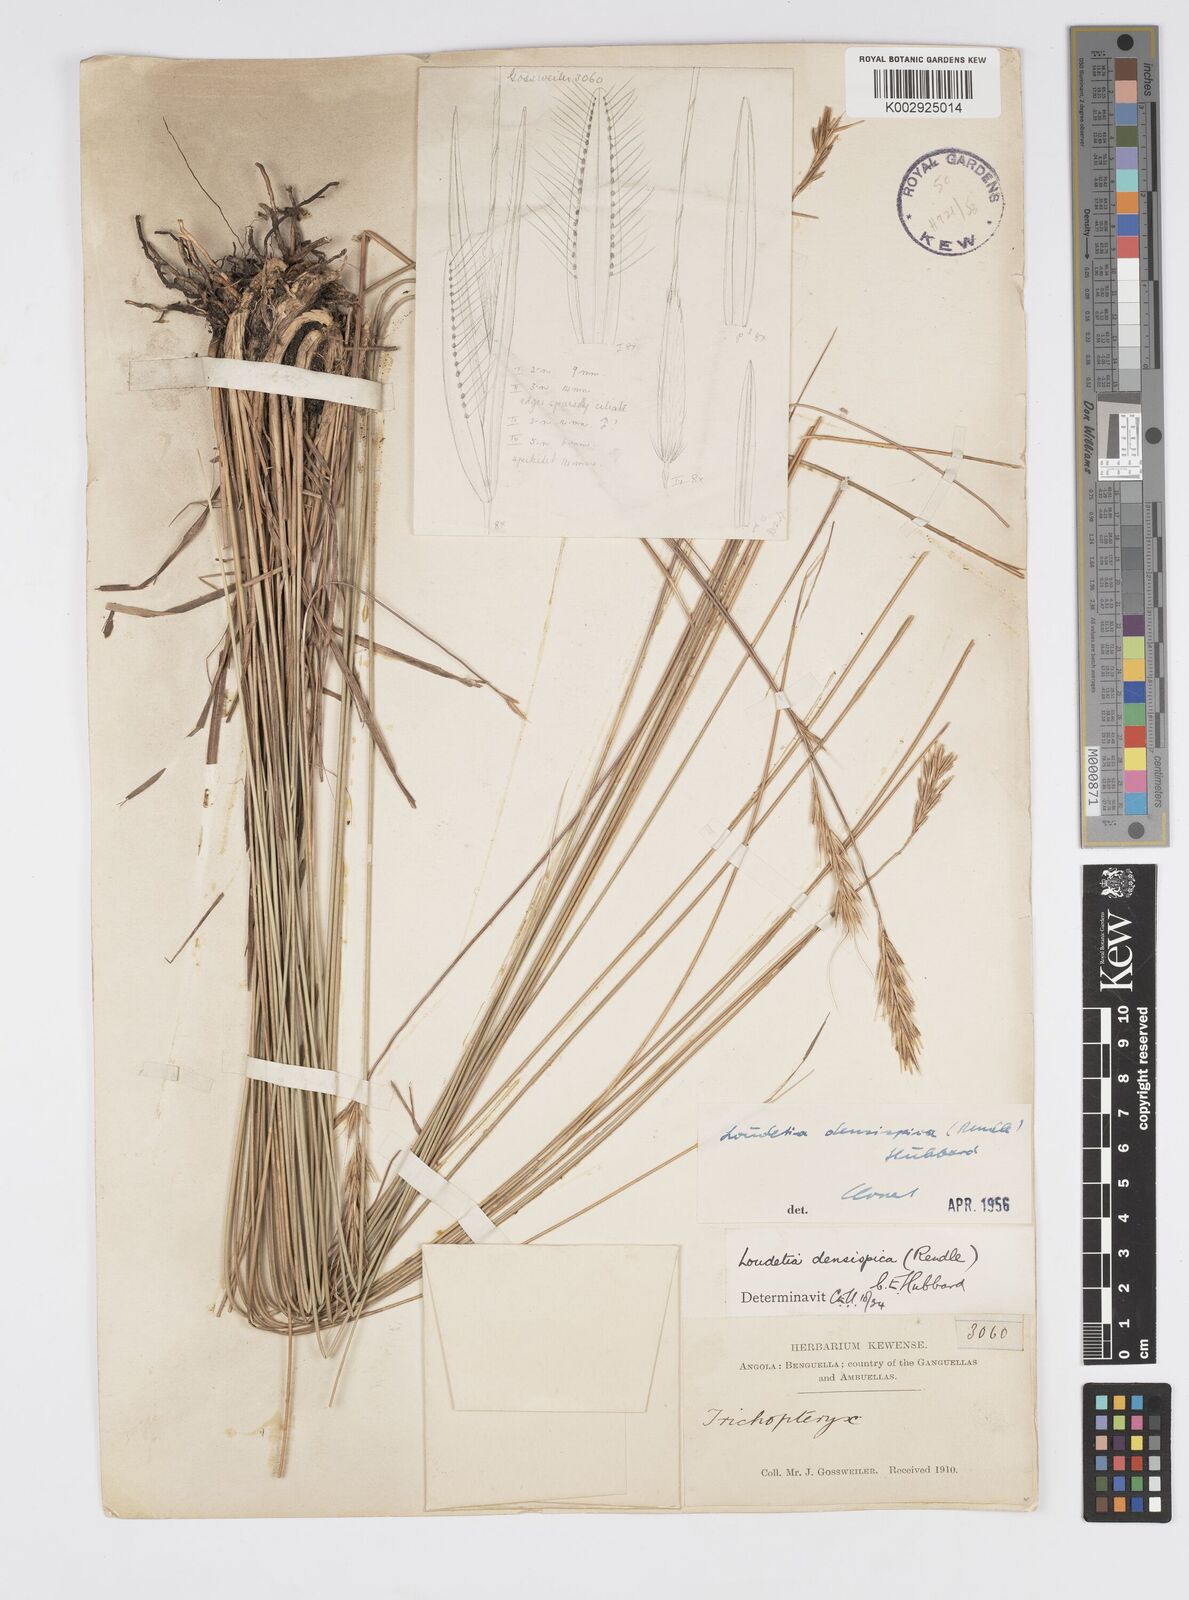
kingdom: Plantae
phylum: Tracheophyta
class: Liliopsida
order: Poales
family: Poaceae
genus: Loudetia
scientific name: Loudetia densispica
